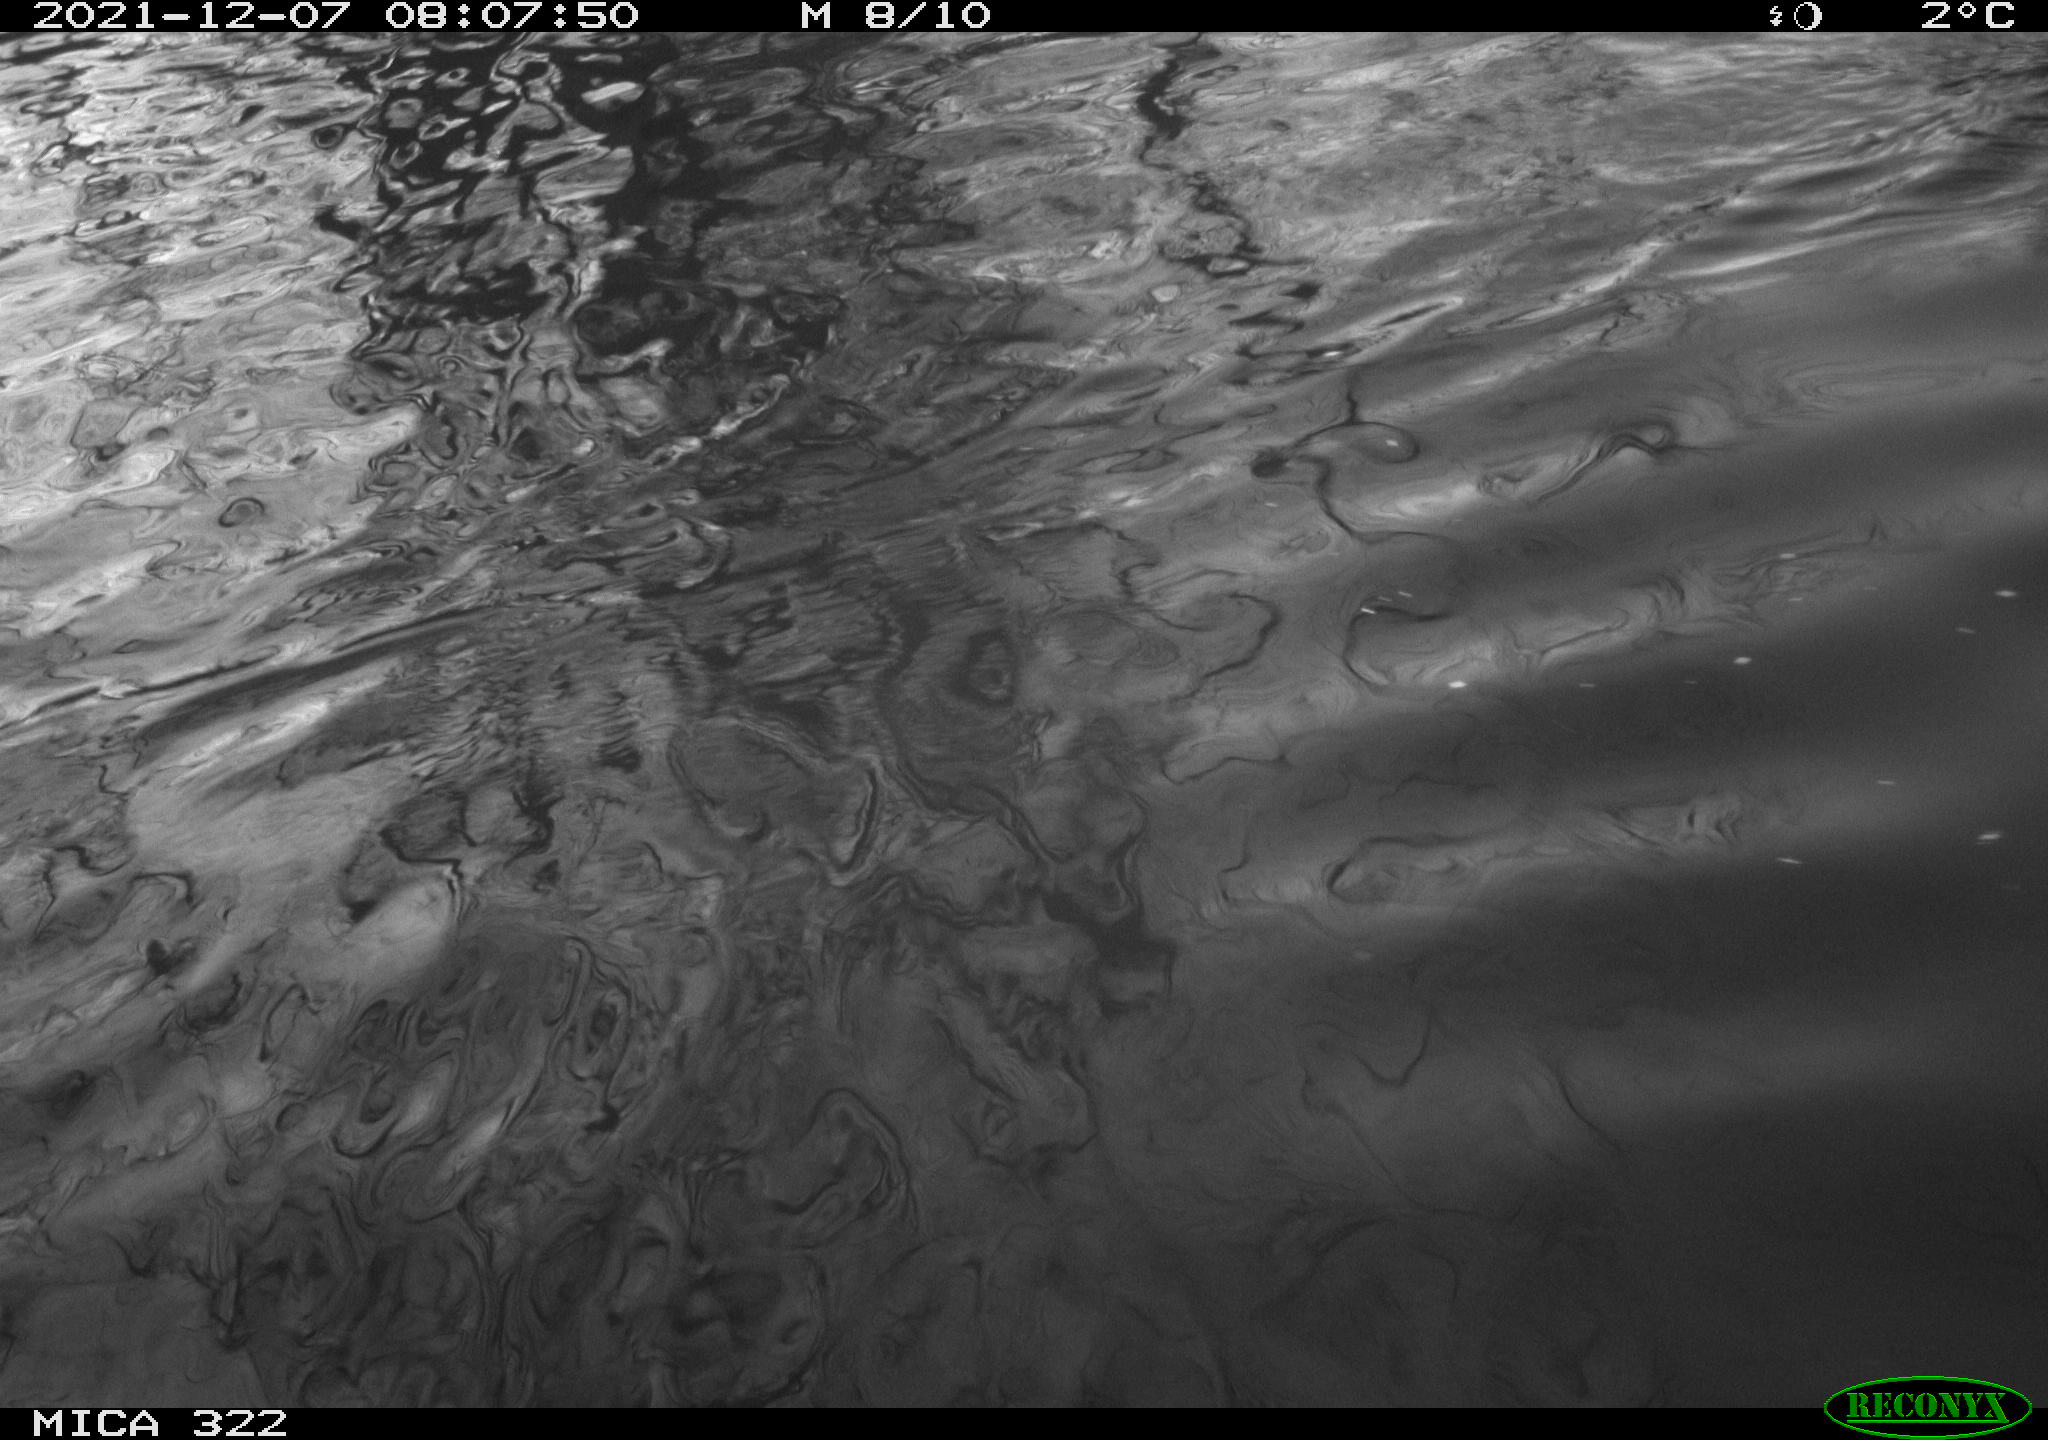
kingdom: Animalia
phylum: Chordata
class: Aves
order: Anseriformes
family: Anatidae
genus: Anas
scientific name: Anas
